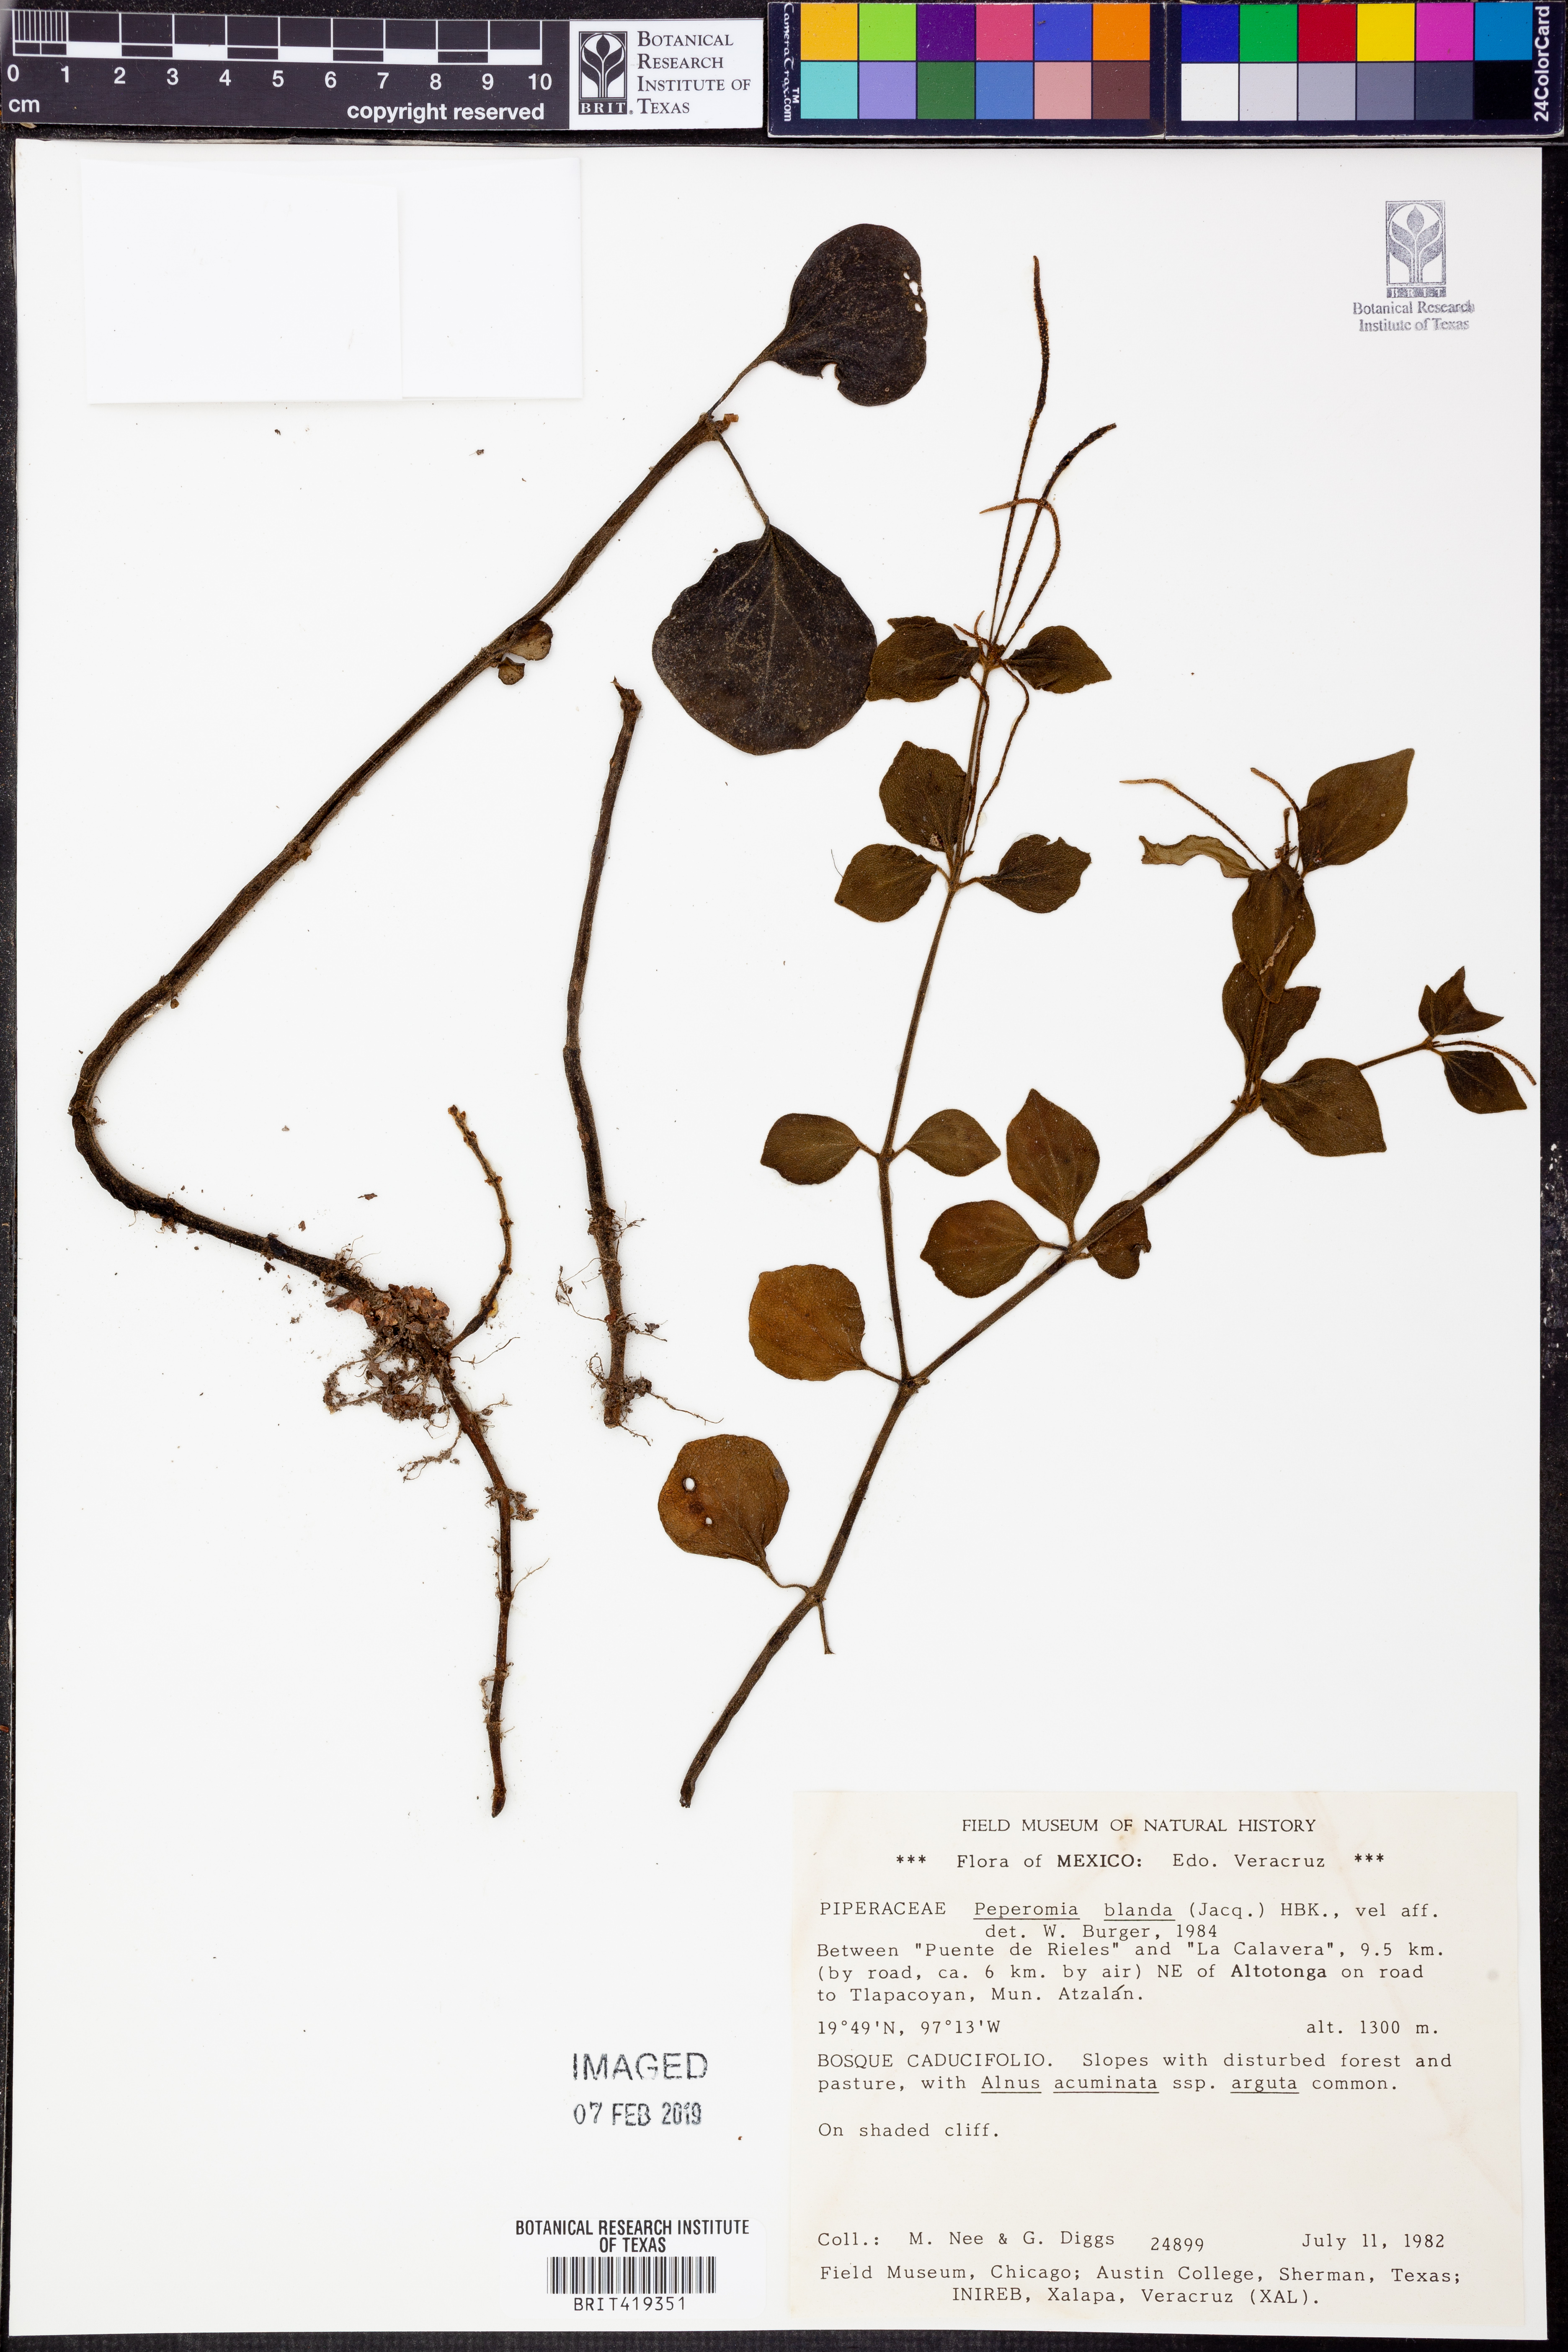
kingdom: Plantae
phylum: Tracheophyta
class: Magnoliopsida
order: Piperales
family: Piperaceae
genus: Peperomia
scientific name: Peperomia blanda
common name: Arid-land peperomia
